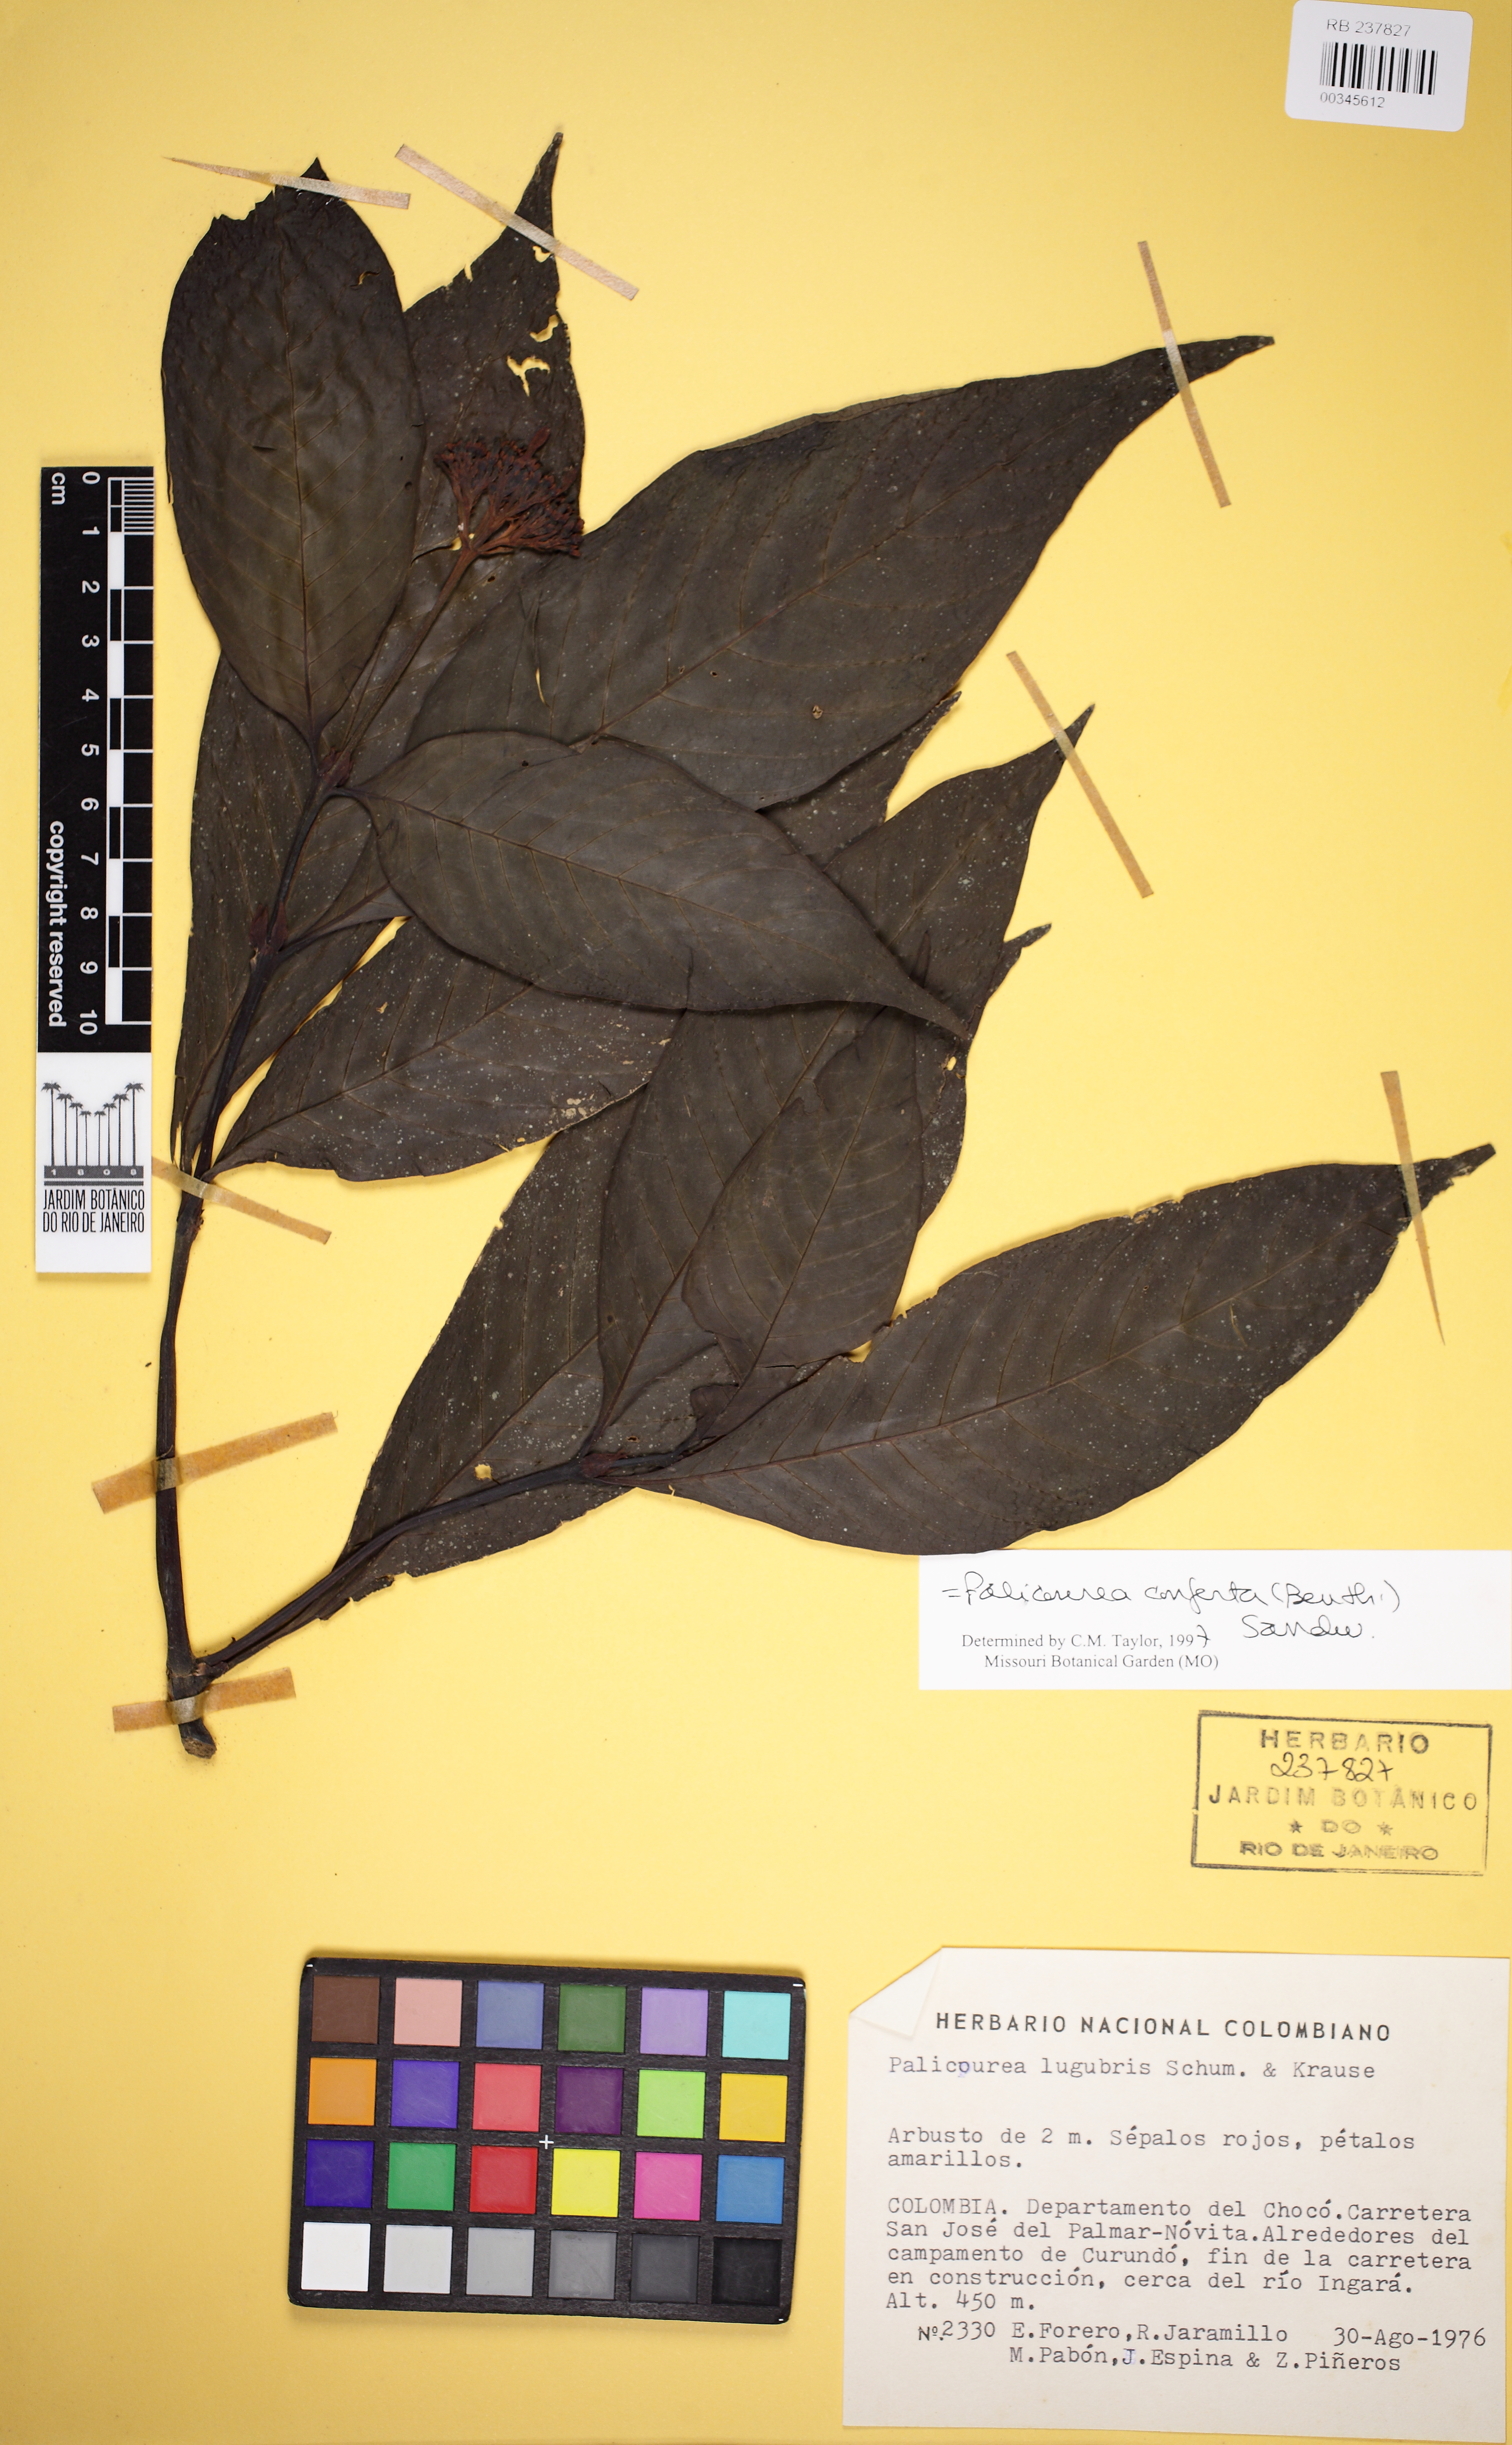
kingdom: Plantae
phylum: Tracheophyta
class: Magnoliopsida
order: Gentianales
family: Rubiaceae
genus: Palicourea
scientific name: Palicourea conferta
